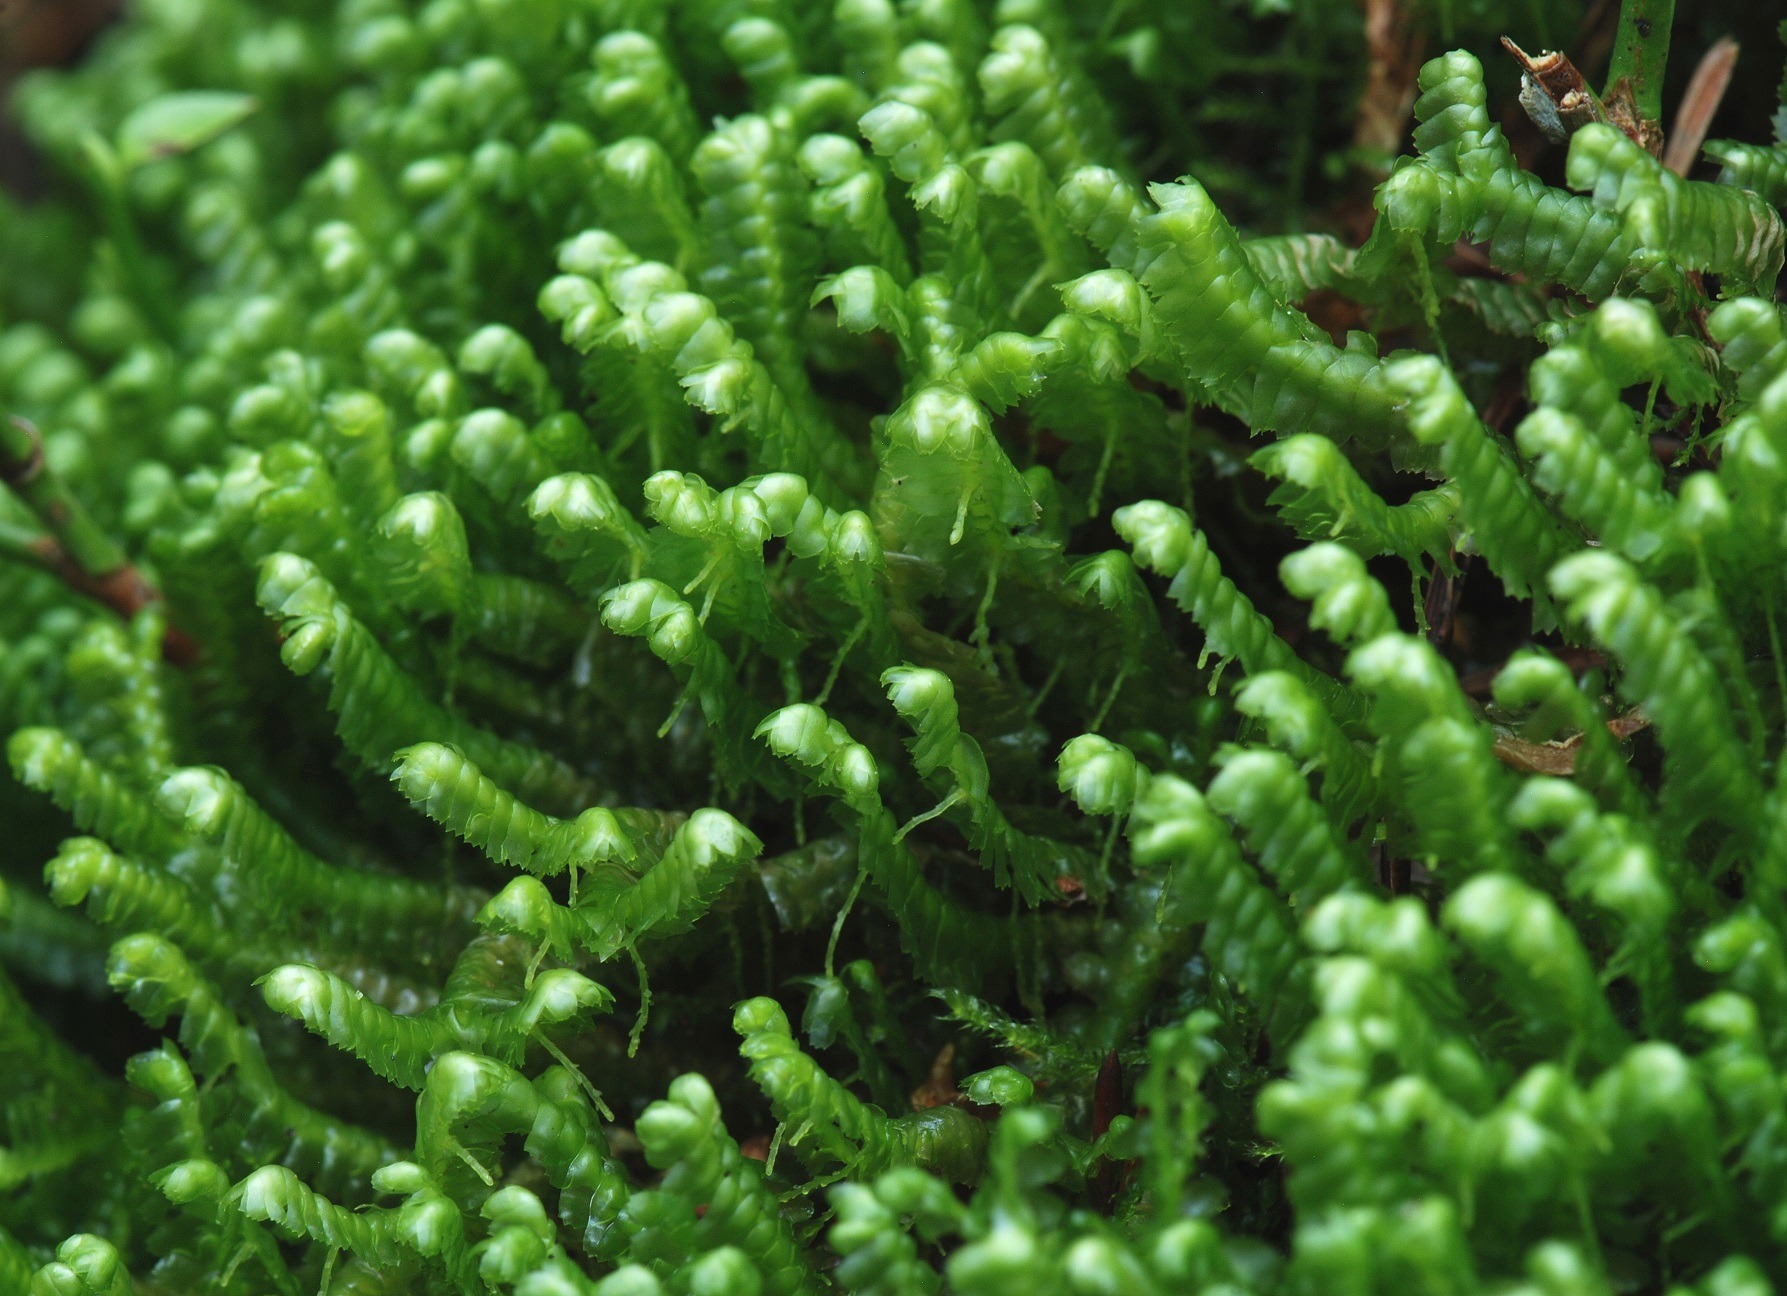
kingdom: Plantae
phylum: Marchantiophyta
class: Jungermanniopsida
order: Jungermanniales
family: Lepidoziaceae
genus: Bazzania
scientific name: Bazzania trilobata
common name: Stor styltemos
